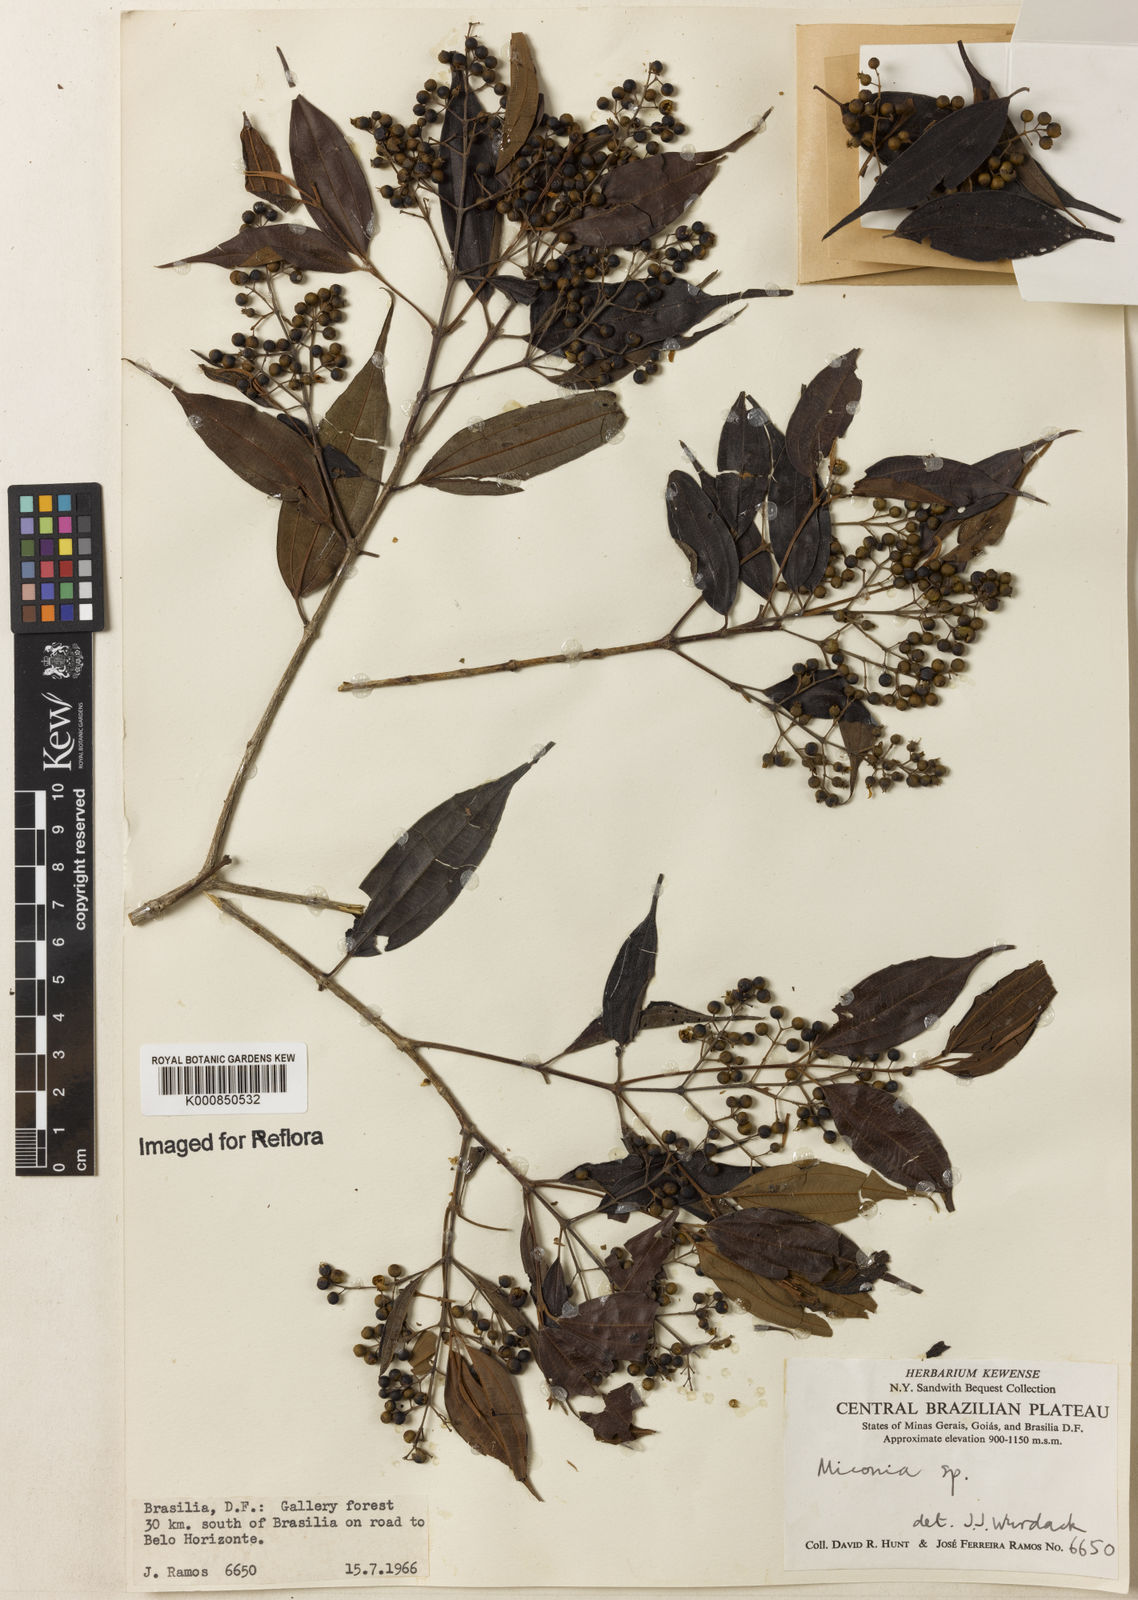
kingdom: Plantae
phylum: Tracheophyta
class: Magnoliopsida
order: Myrtales
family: Melastomataceae
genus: Miconia
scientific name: Miconia
